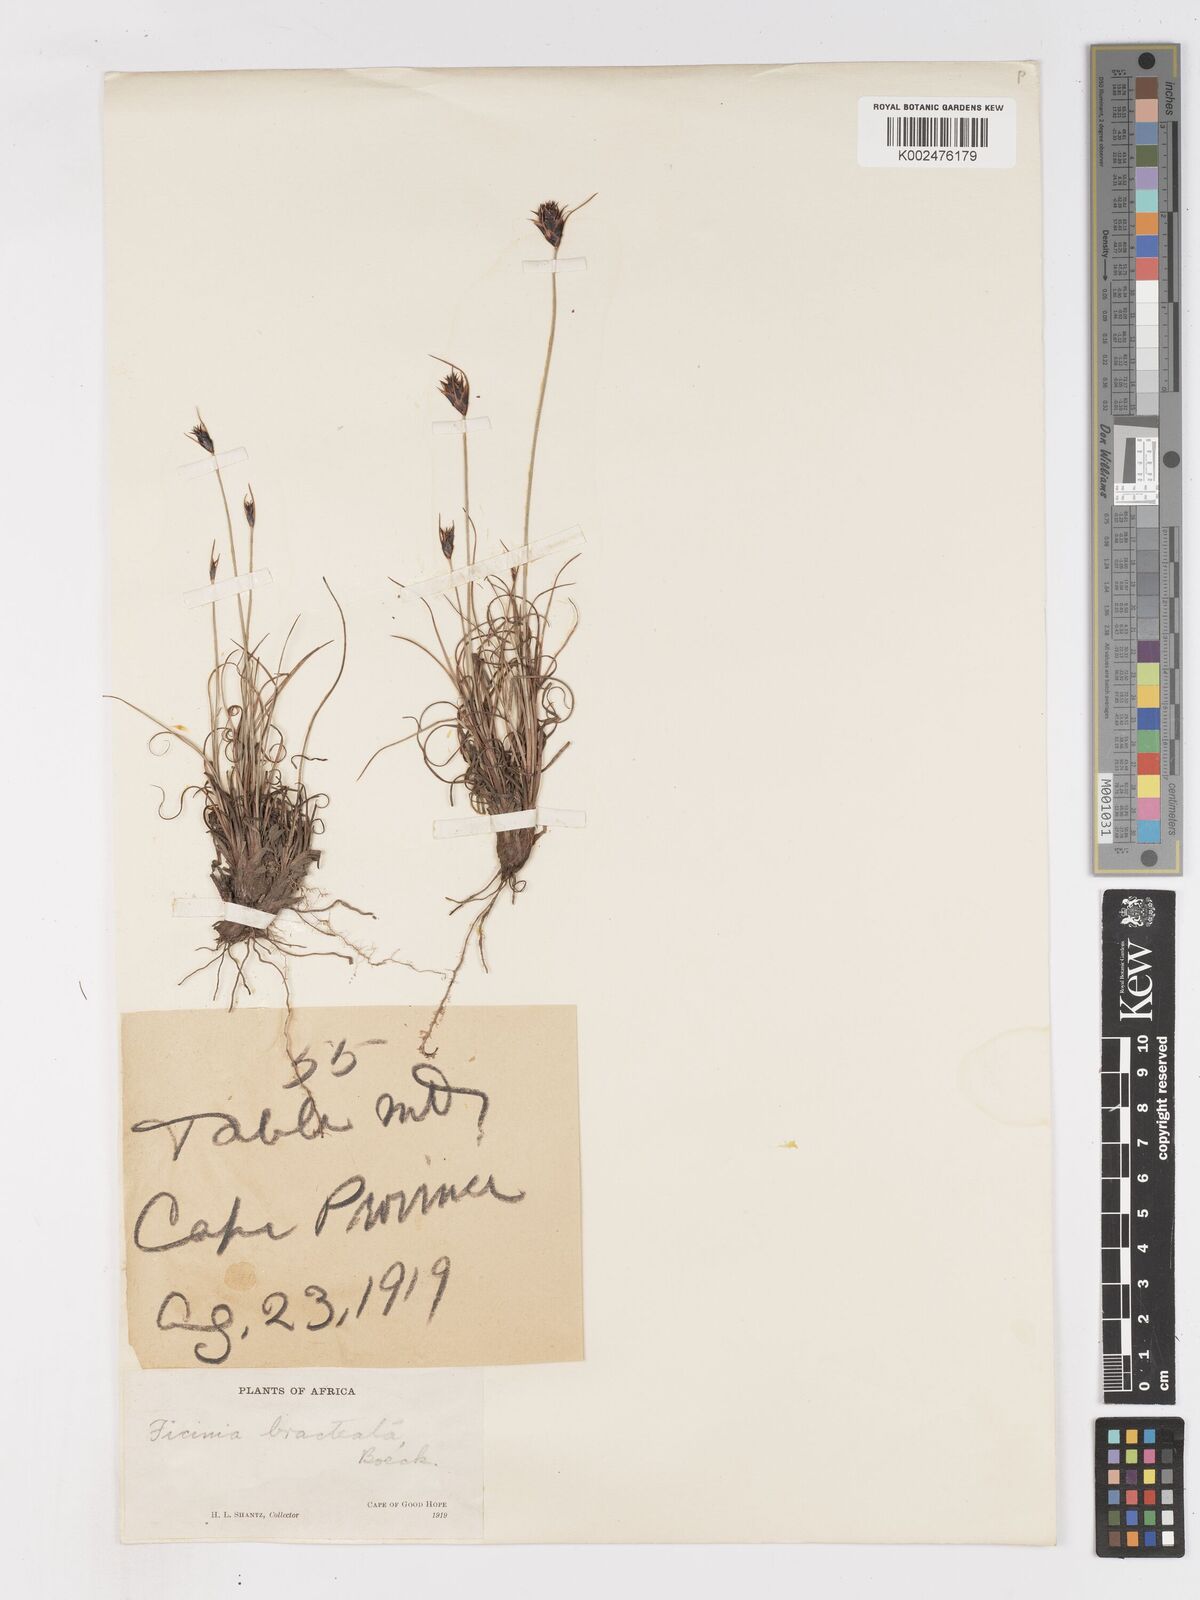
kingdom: Plantae
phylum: Tracheophyta
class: Liliopsida
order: Poales
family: Cyperaceae
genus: Ficinia
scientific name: Ficinia nigrescens
